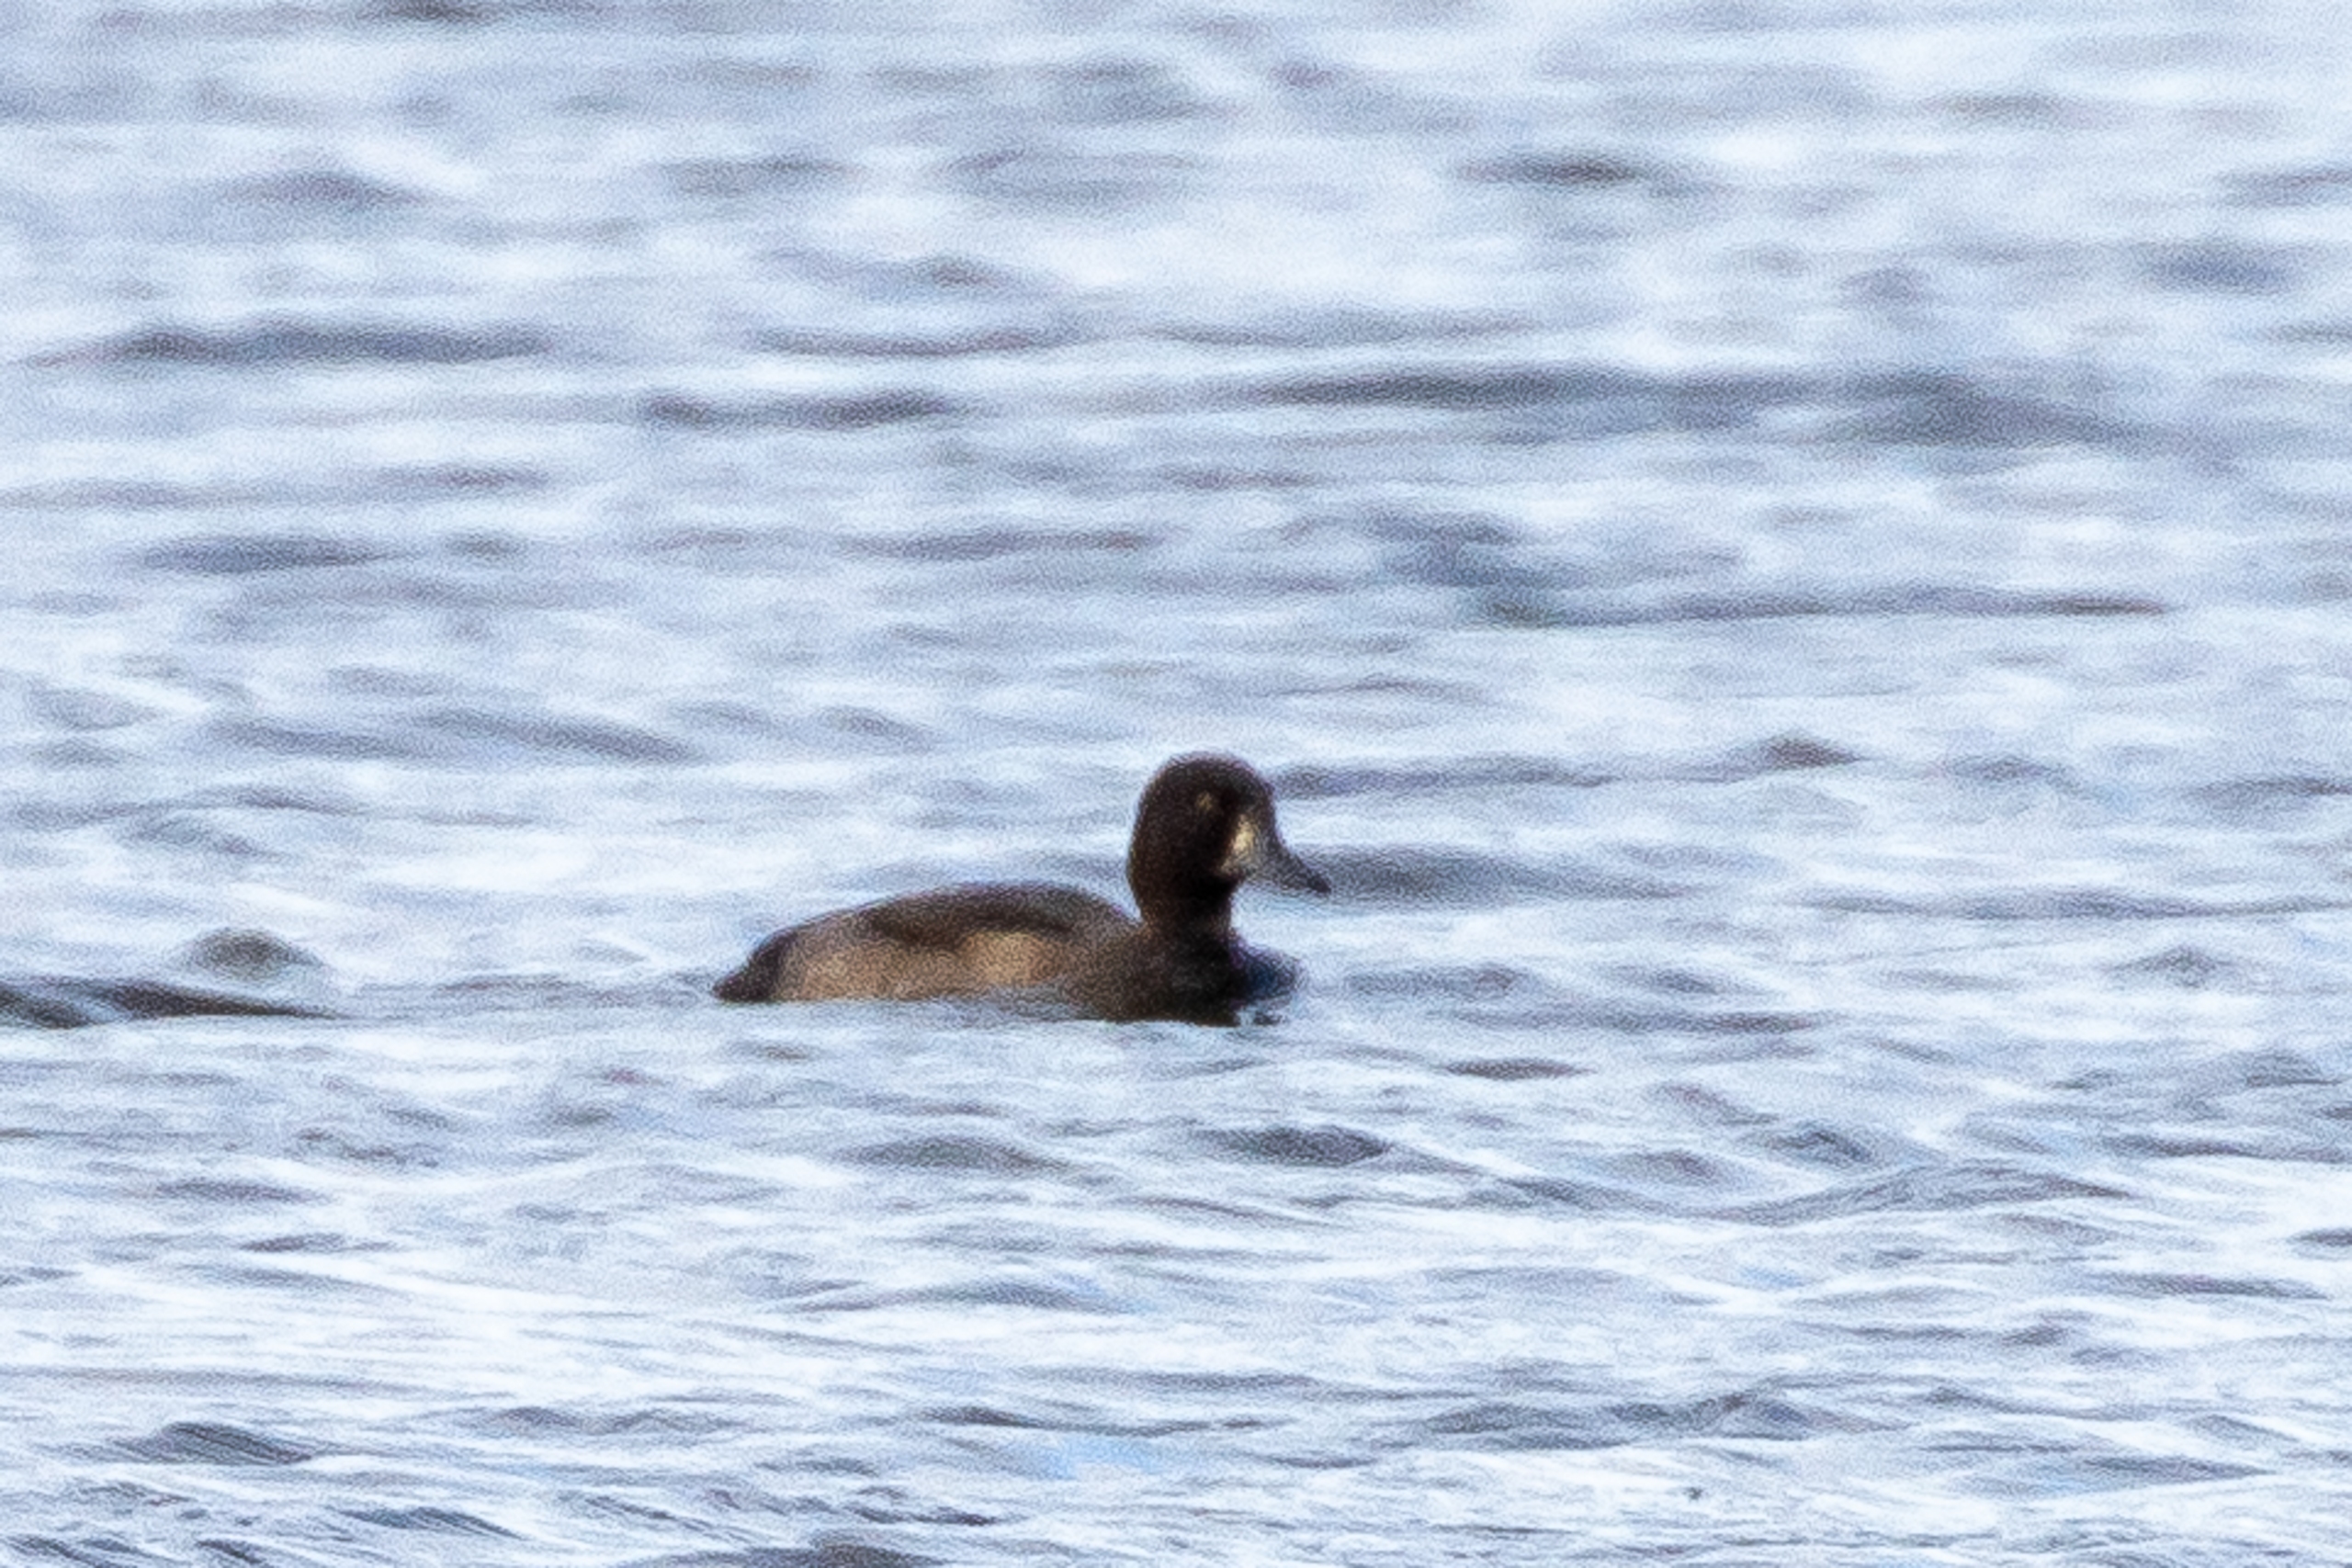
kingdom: Animalia
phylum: Chordata
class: Aves
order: Anseriformes
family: Anatidae
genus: Aythya
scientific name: Aythya fuligula
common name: Troldand
